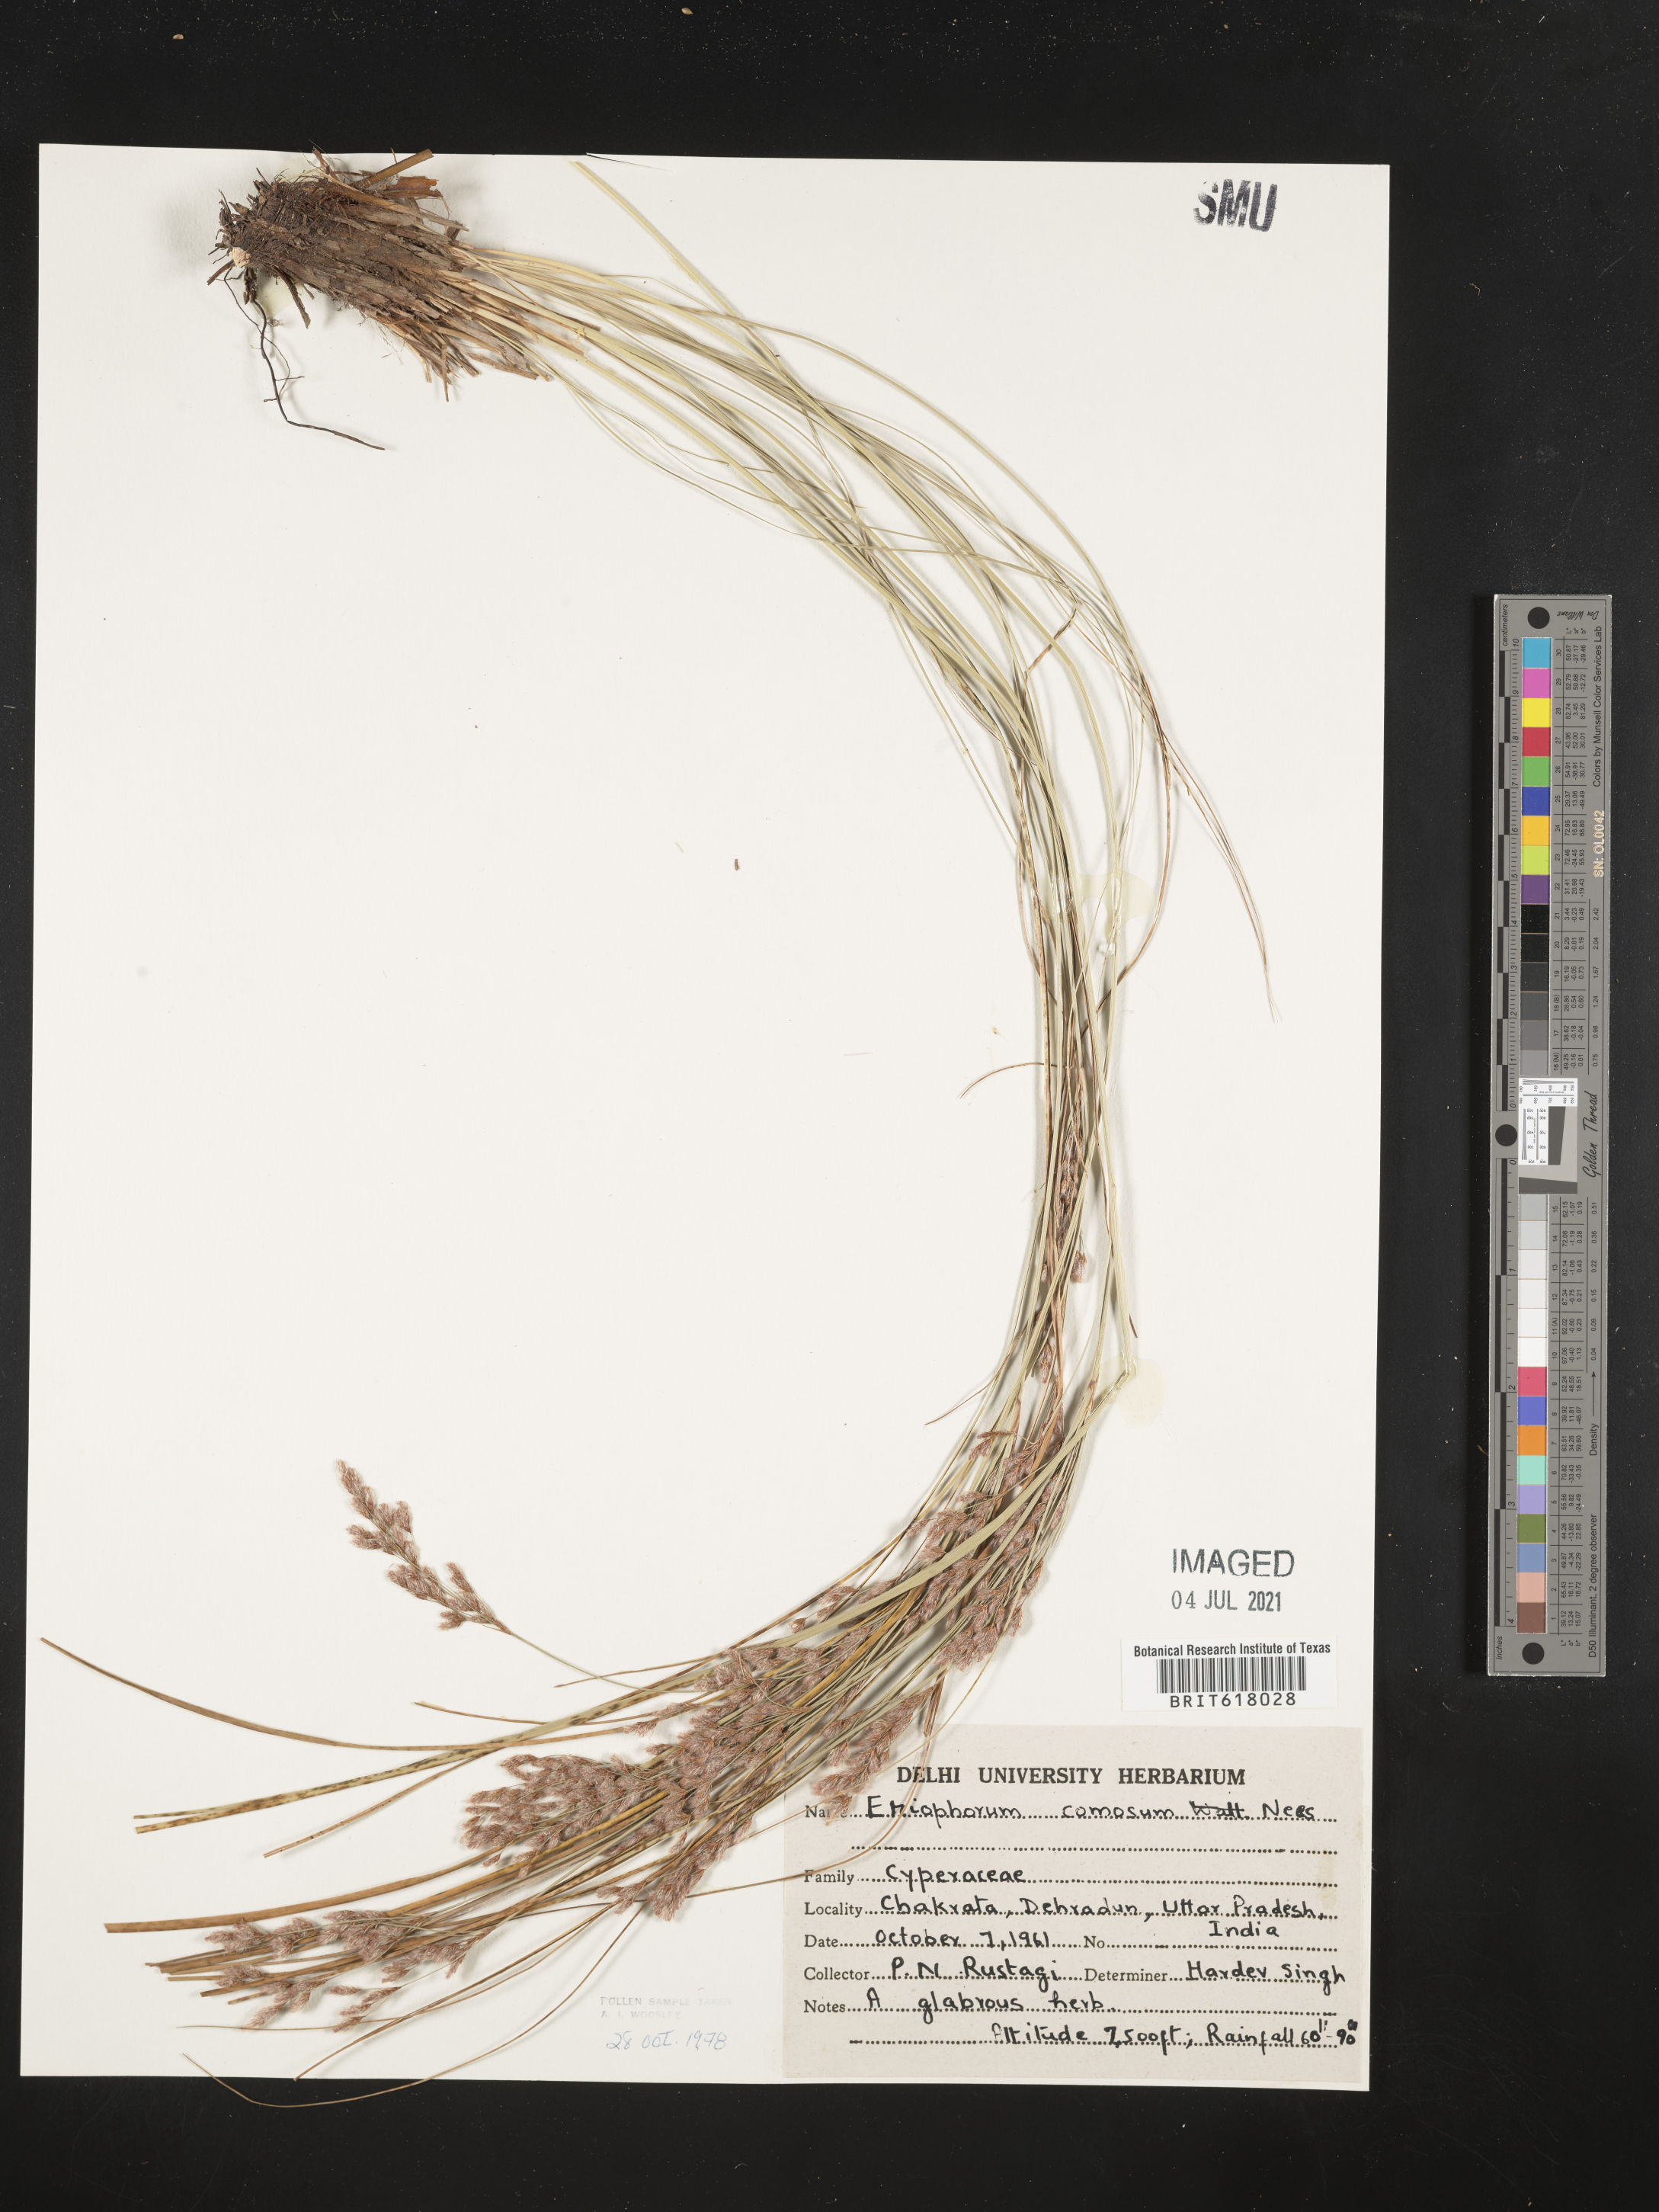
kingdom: Plantae
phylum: Tracheophyta
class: Liliopsida
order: Poales
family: Cyperaceae
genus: Erioscirpus
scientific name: Erioscirpus comosus
